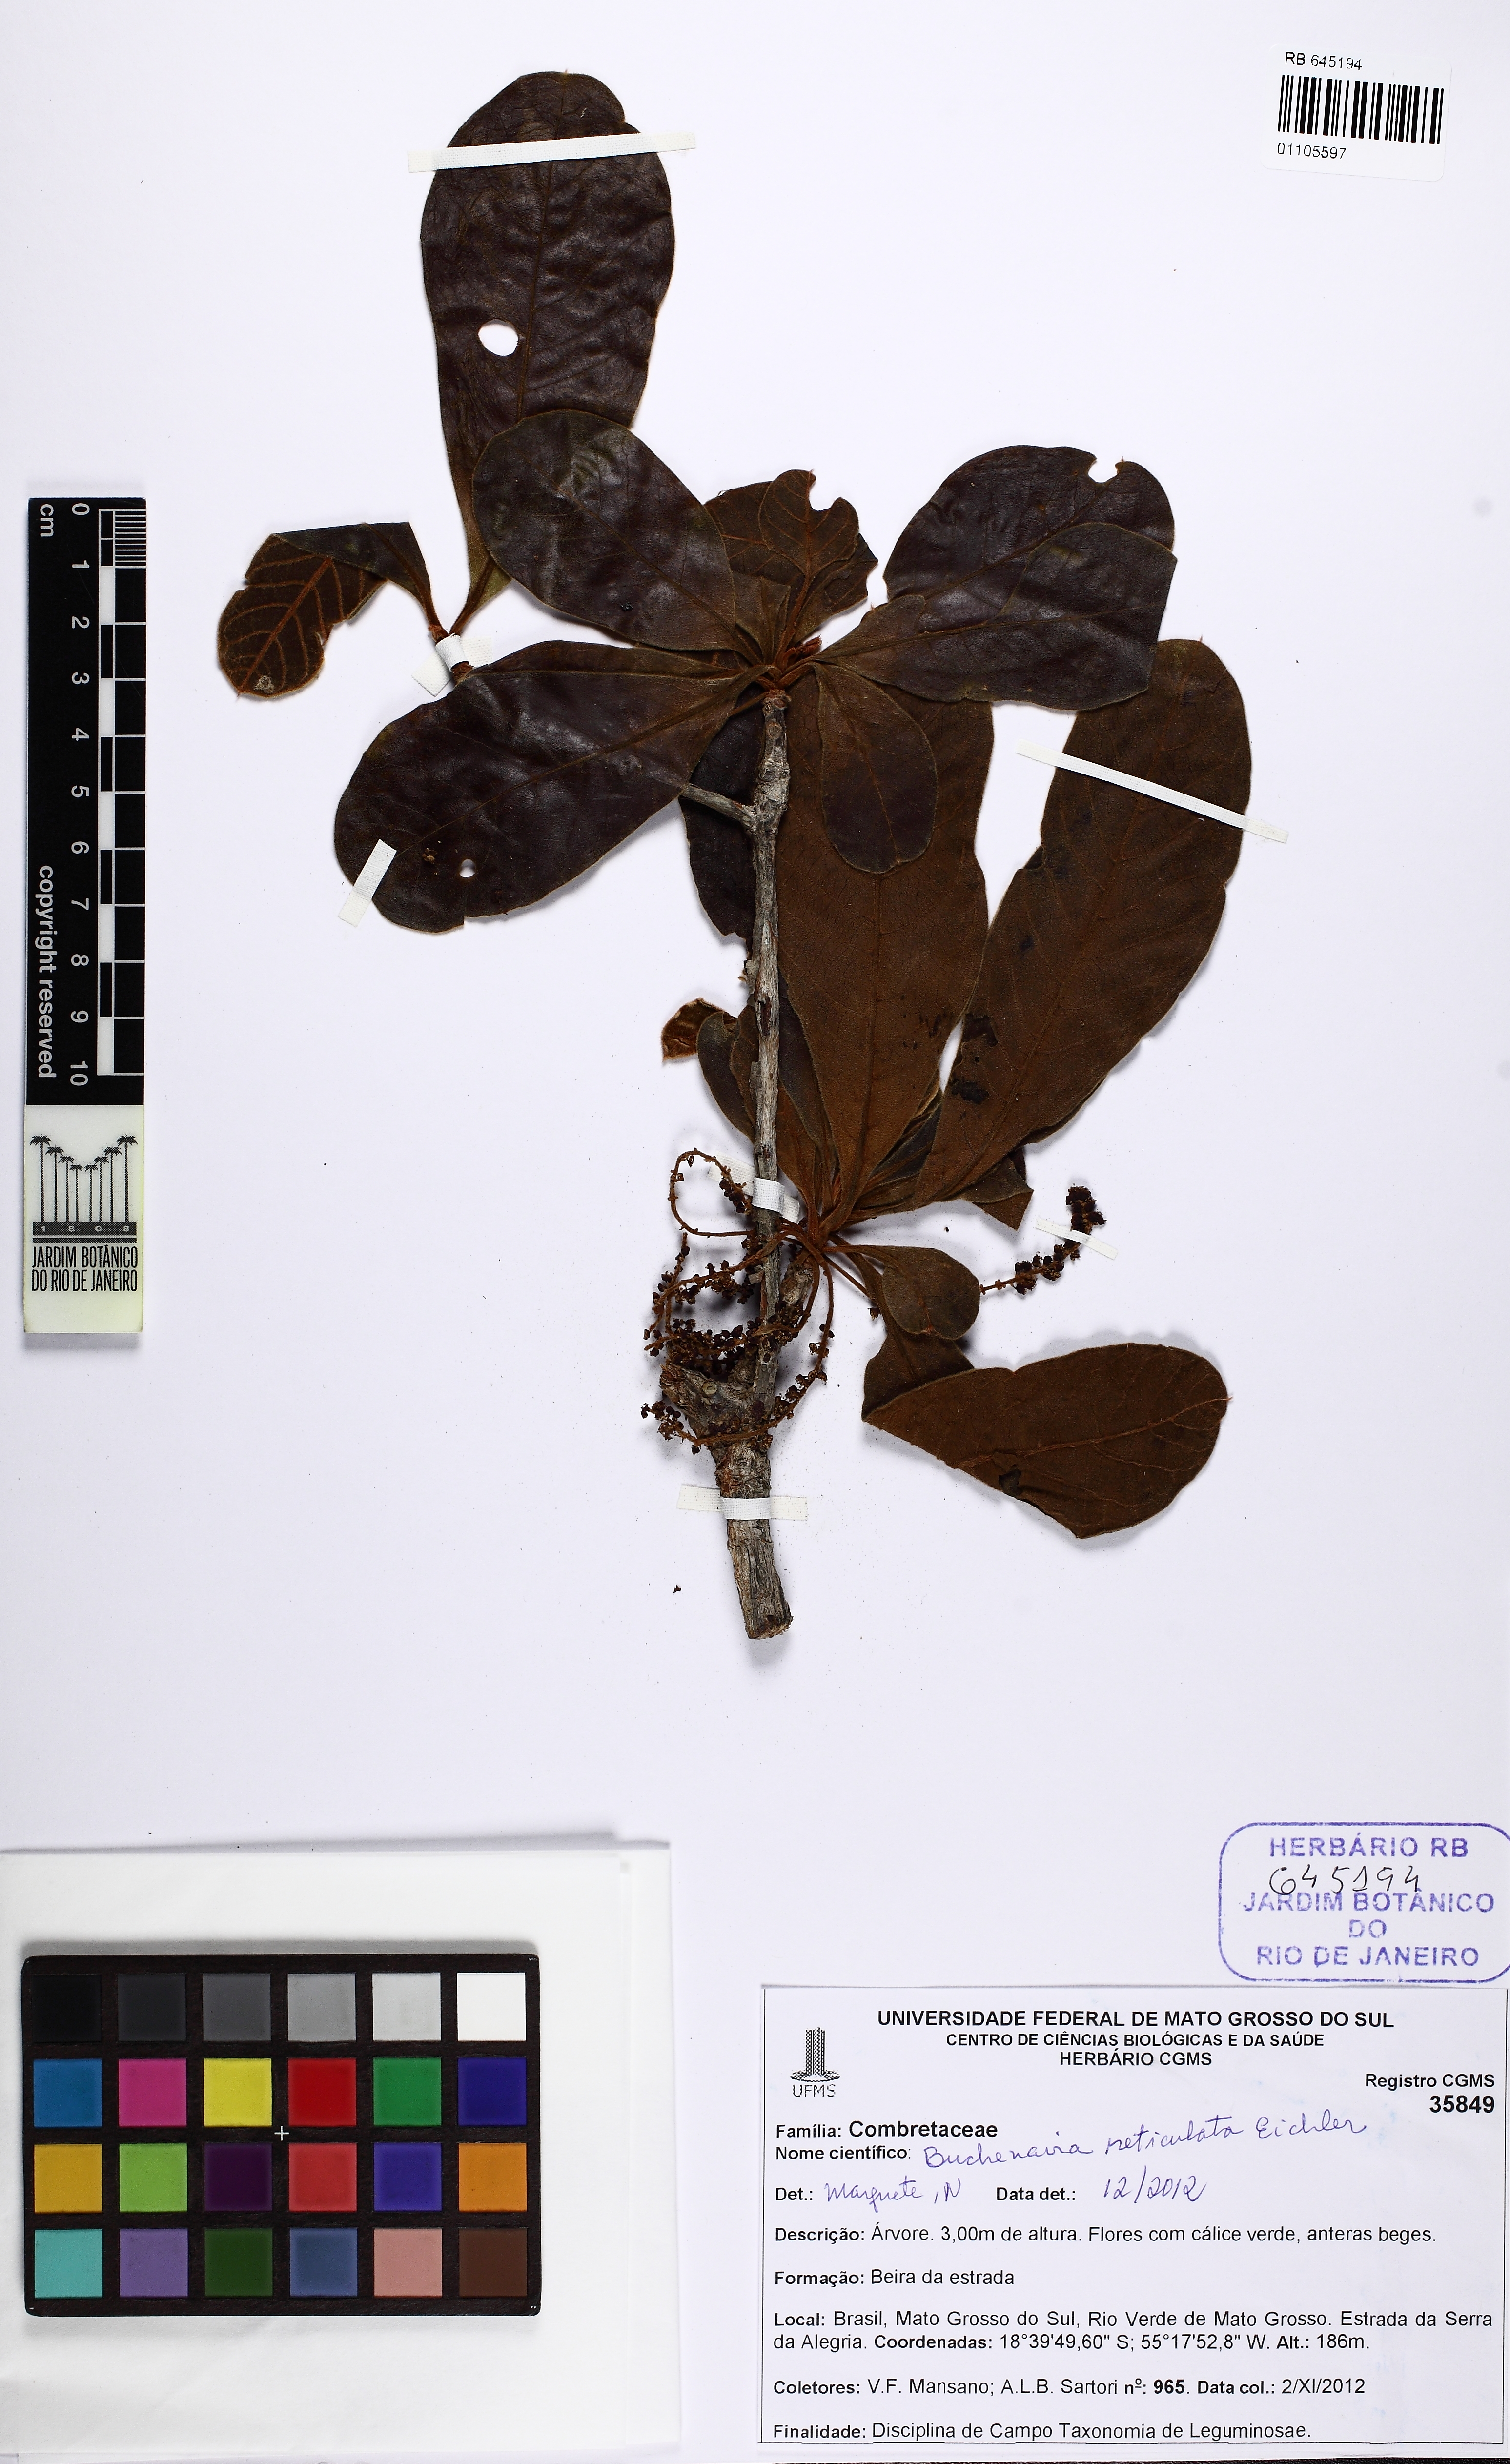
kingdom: Plantae
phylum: Tracheophyta
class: Magnoliopsida
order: Myrtales
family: Combretaceae
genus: Terminalia
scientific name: Terminalia pulcherrima
